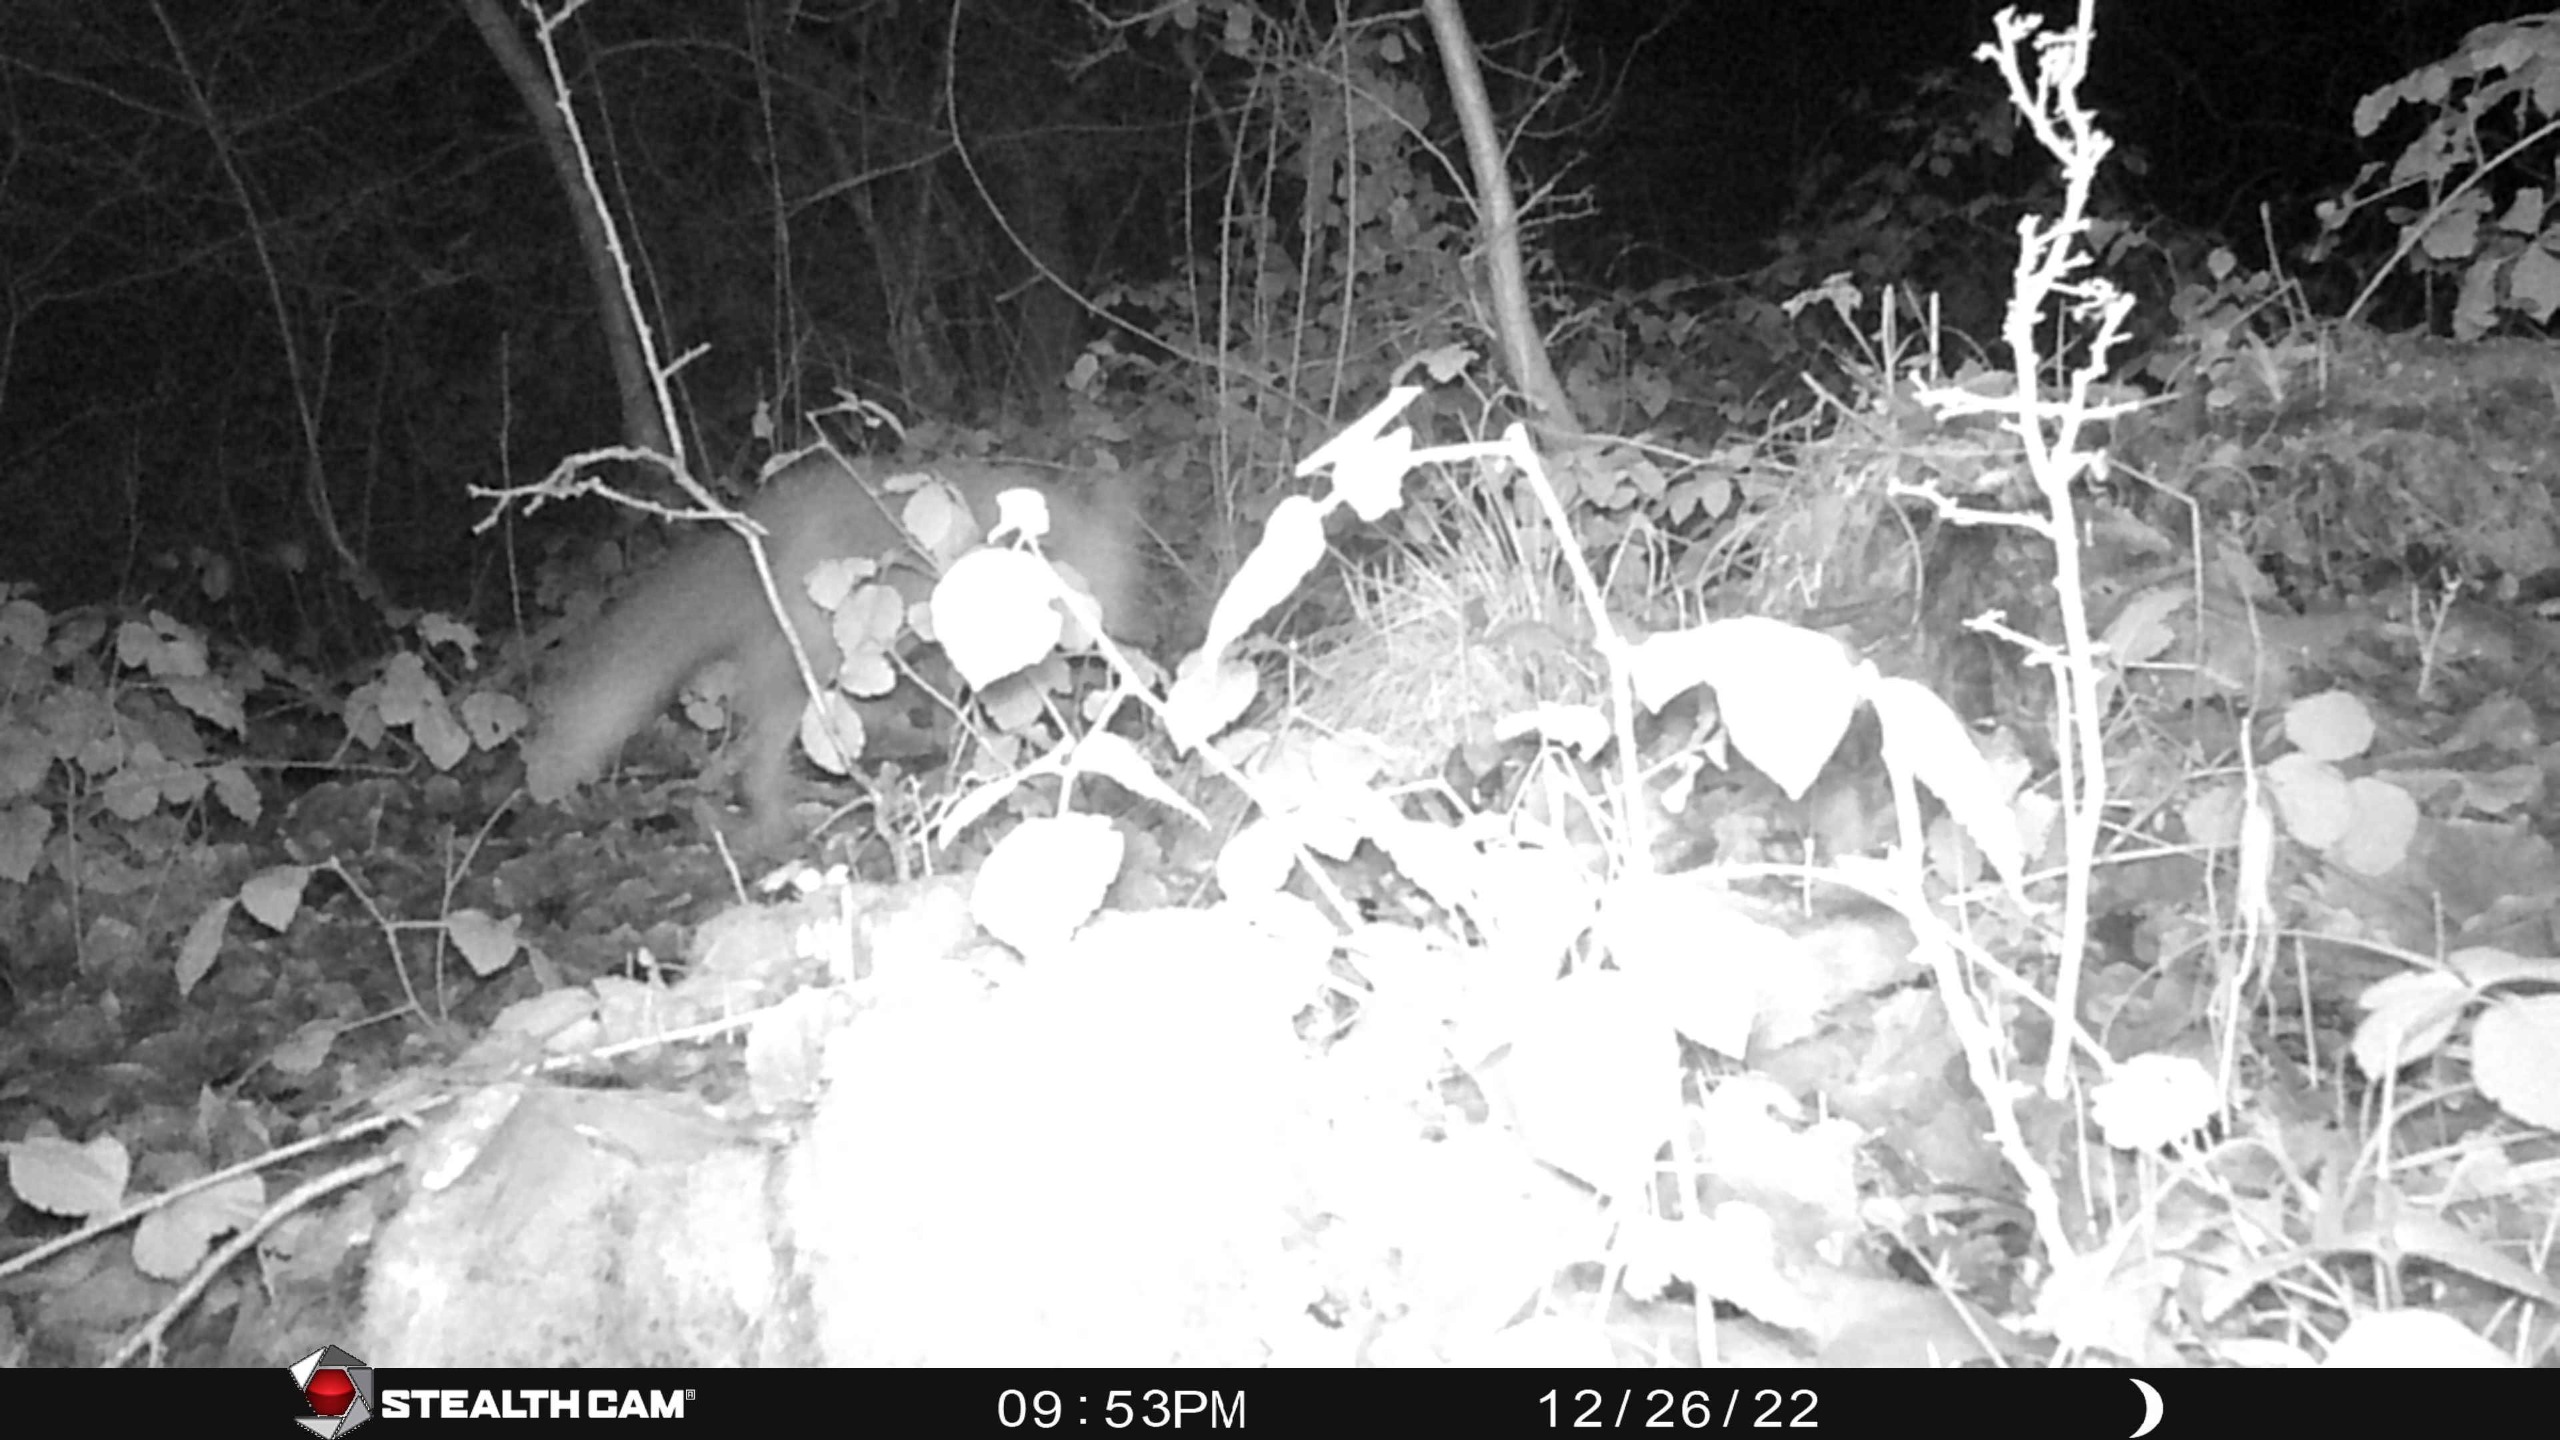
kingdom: Animalia
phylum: Chordata
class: Mammalia
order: Carnivora
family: Canidae
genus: Vulpes
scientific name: Vulpes vulpes
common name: Ræv
